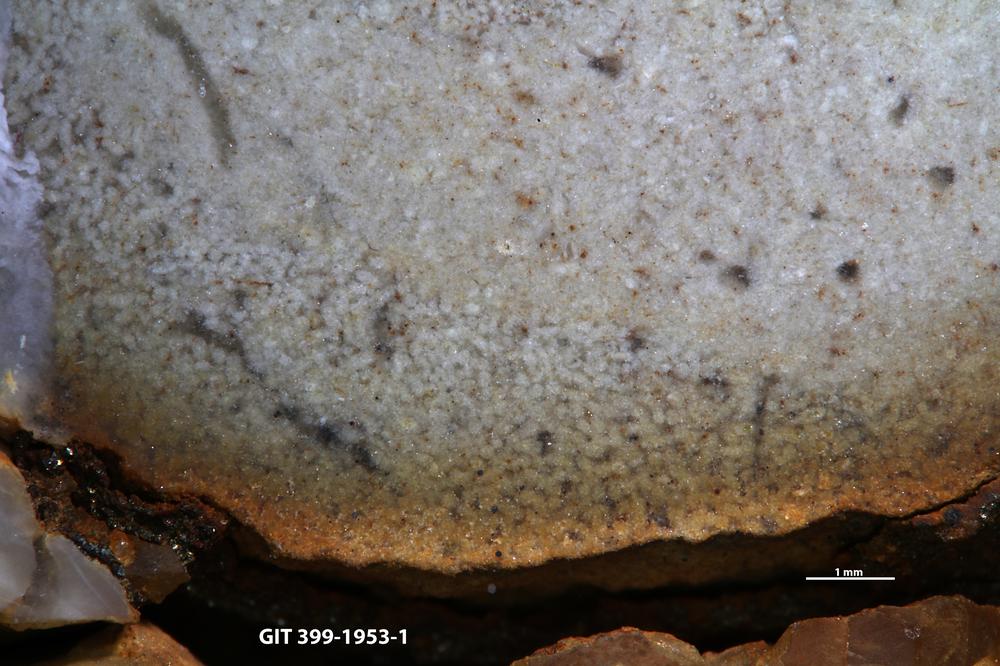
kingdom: Animalia
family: Coprulidae
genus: Coprulus
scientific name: Coprulus
